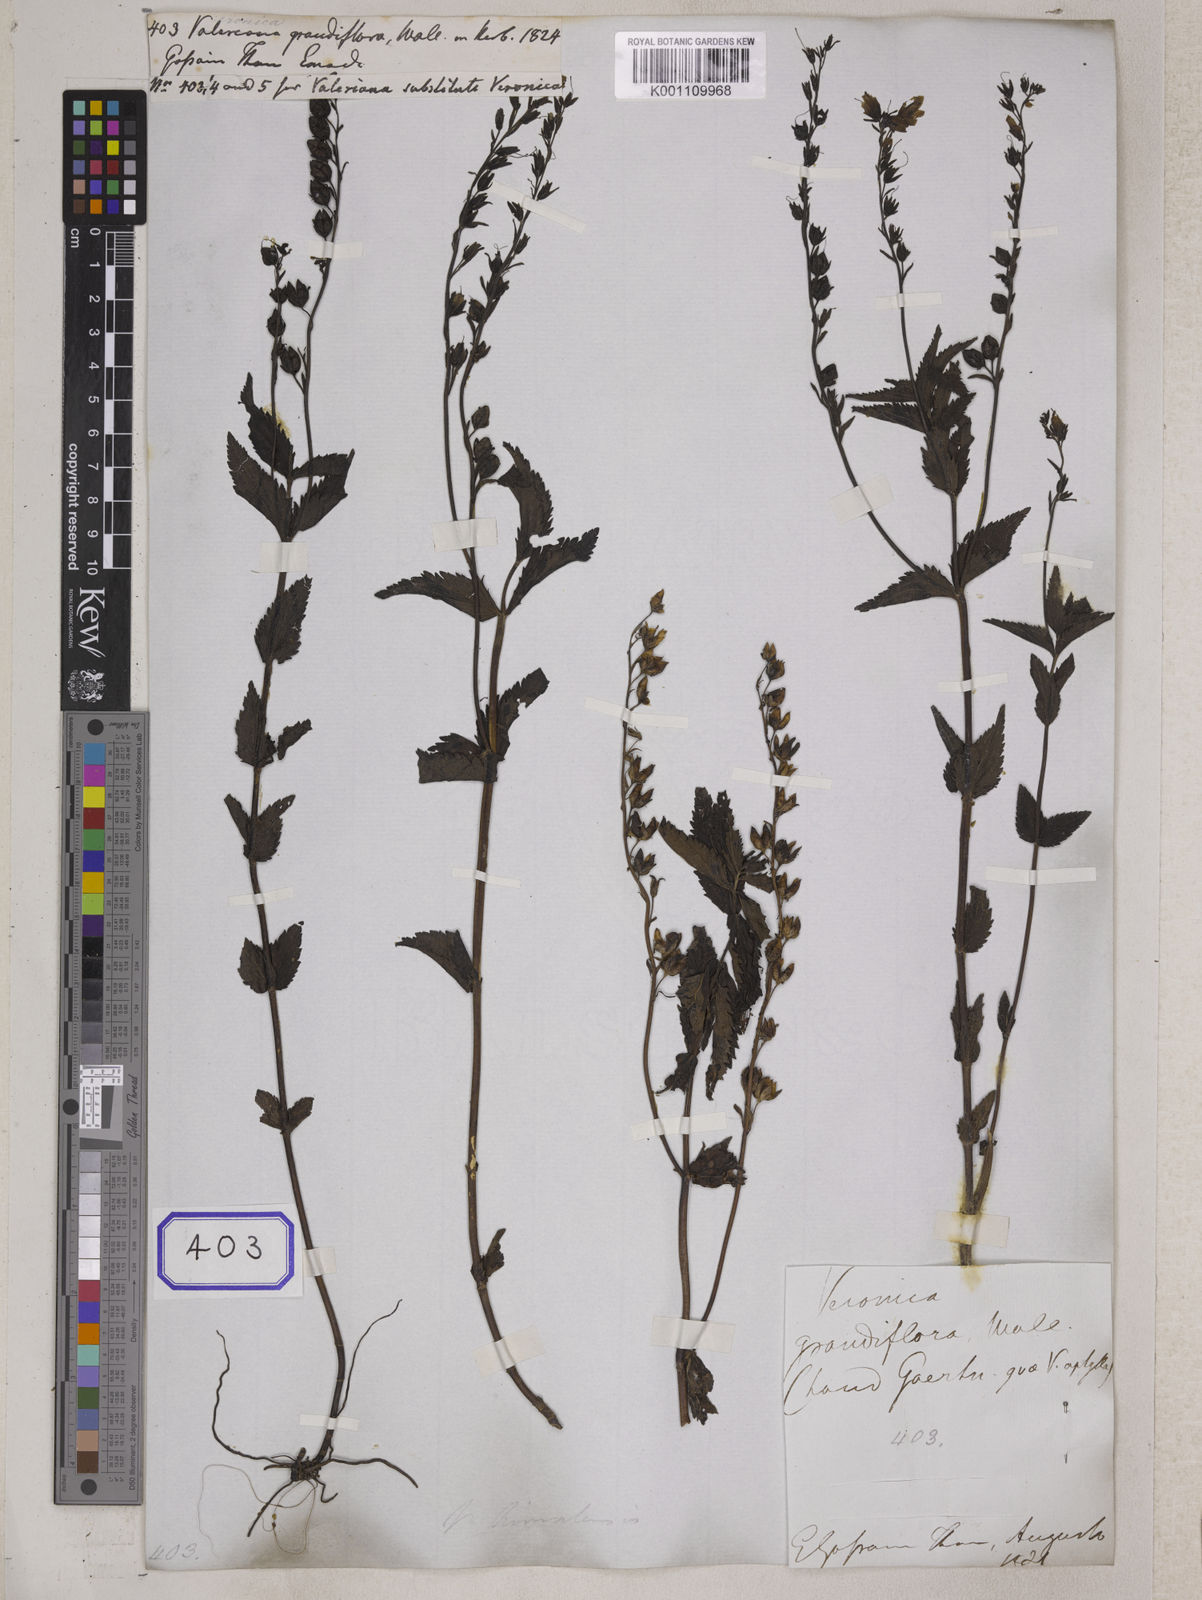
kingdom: Plantae
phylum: Tracheophyta
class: Magnoliopsida
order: Lamiales
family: Plantaginaceae
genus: Veronica
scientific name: Veronica himalensis
